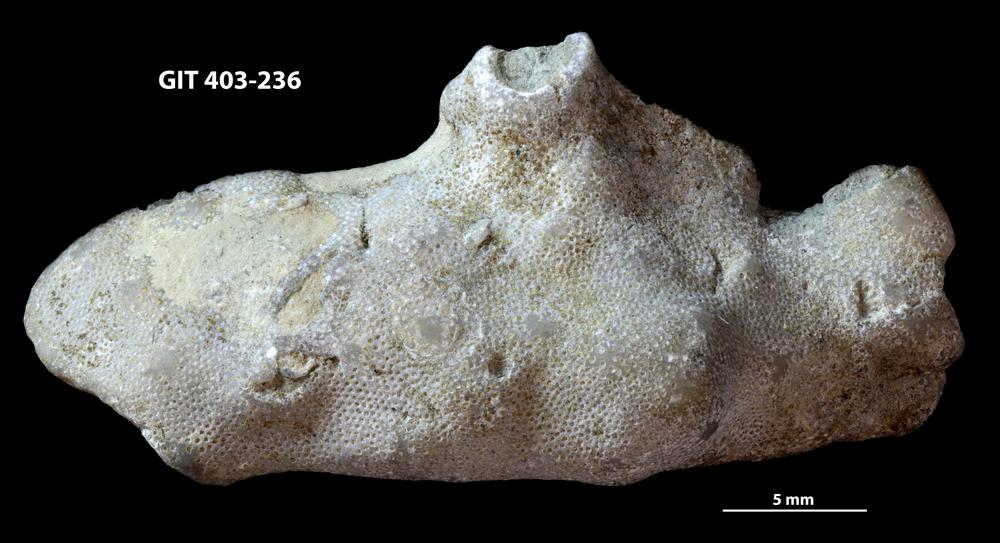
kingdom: Animalia
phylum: Bryozoa
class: Stenolaemata
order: Cystoporida
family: Fistuliporidae
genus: Fistulipora
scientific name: Fistulipora przhidolensis
